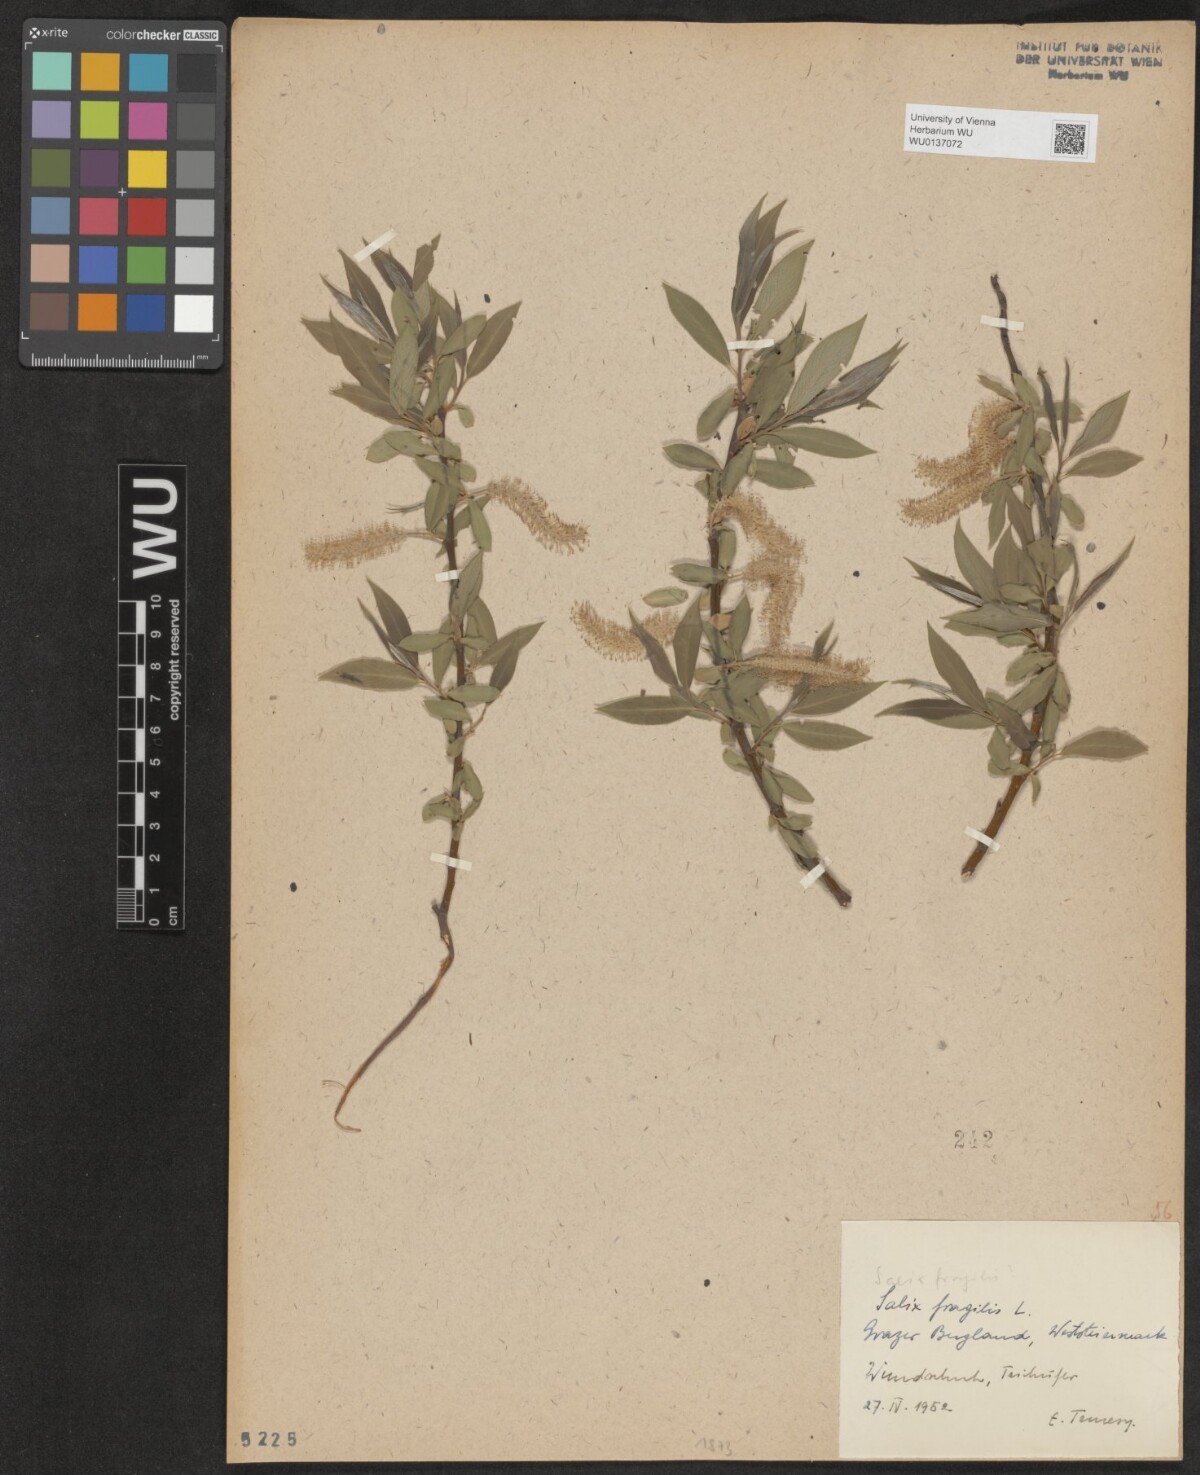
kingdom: Plantae
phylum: Tracheophyta
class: Magnoliopsida
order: Malpighiales
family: Salicaceae
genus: Salix
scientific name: Salix fragilis
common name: Crack willow
